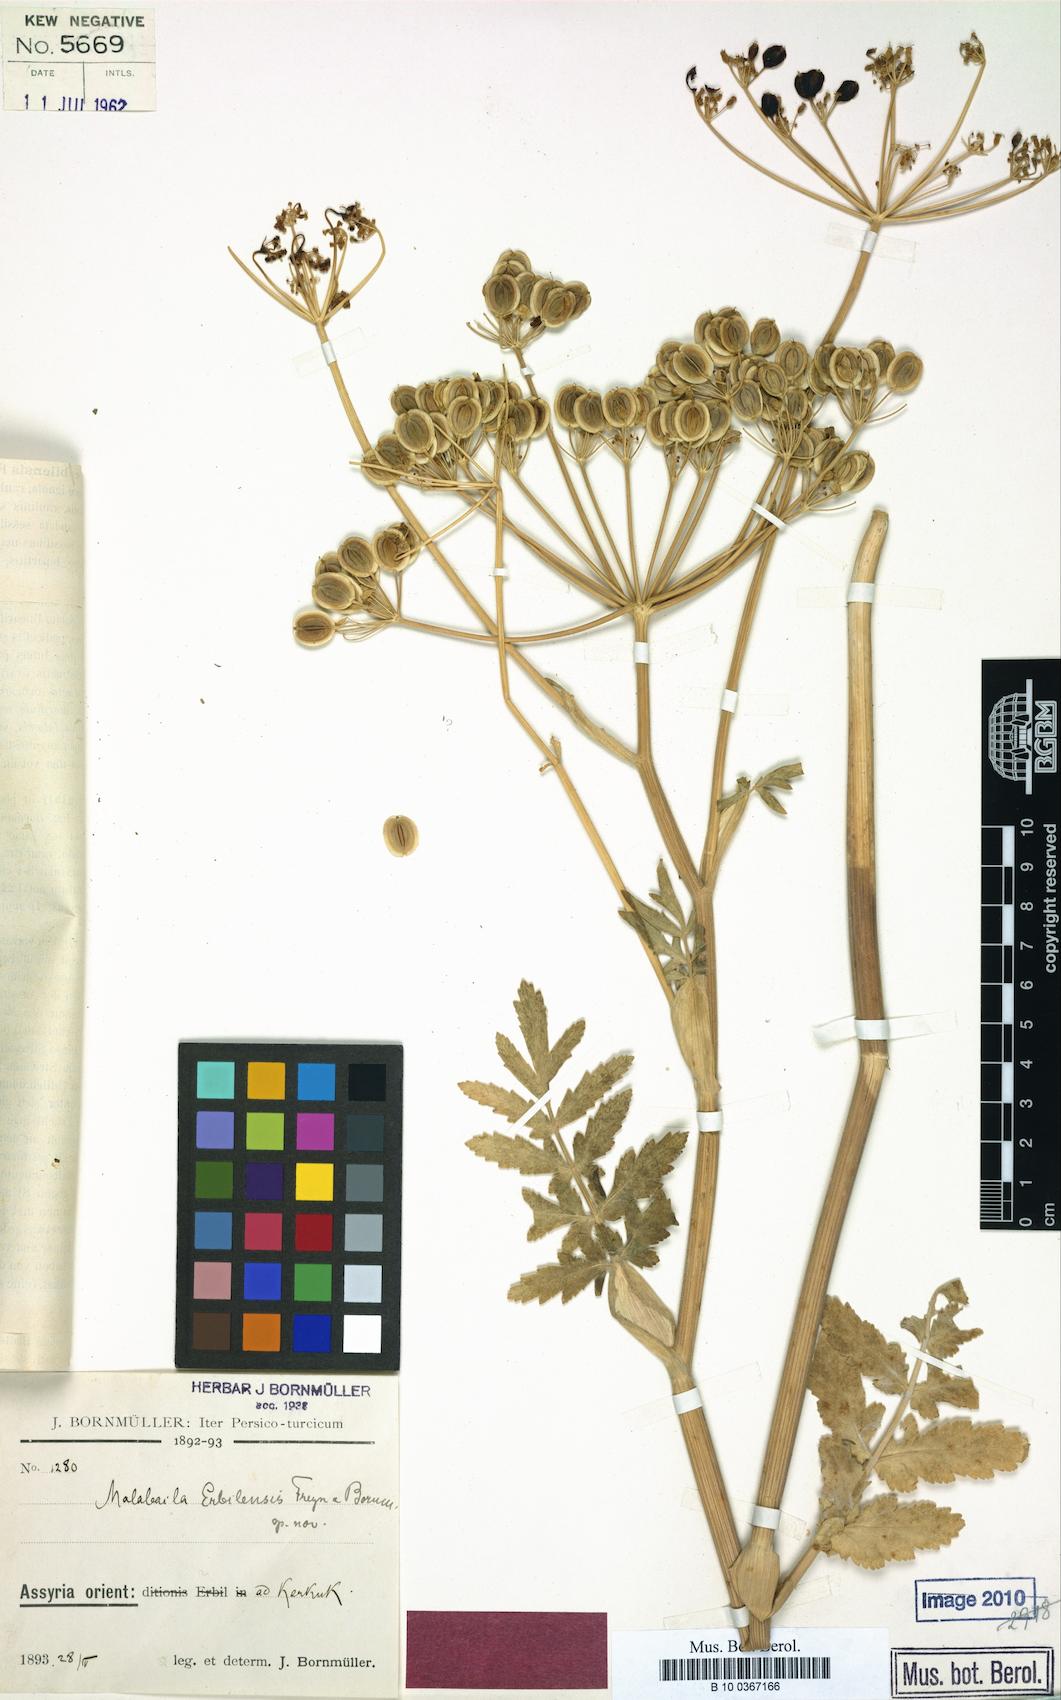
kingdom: Plantae
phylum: Tracheophyta
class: Magnoliopsida
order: Apiales
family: Apiaceae
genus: Leiotulus
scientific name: Leiotulus secacul
